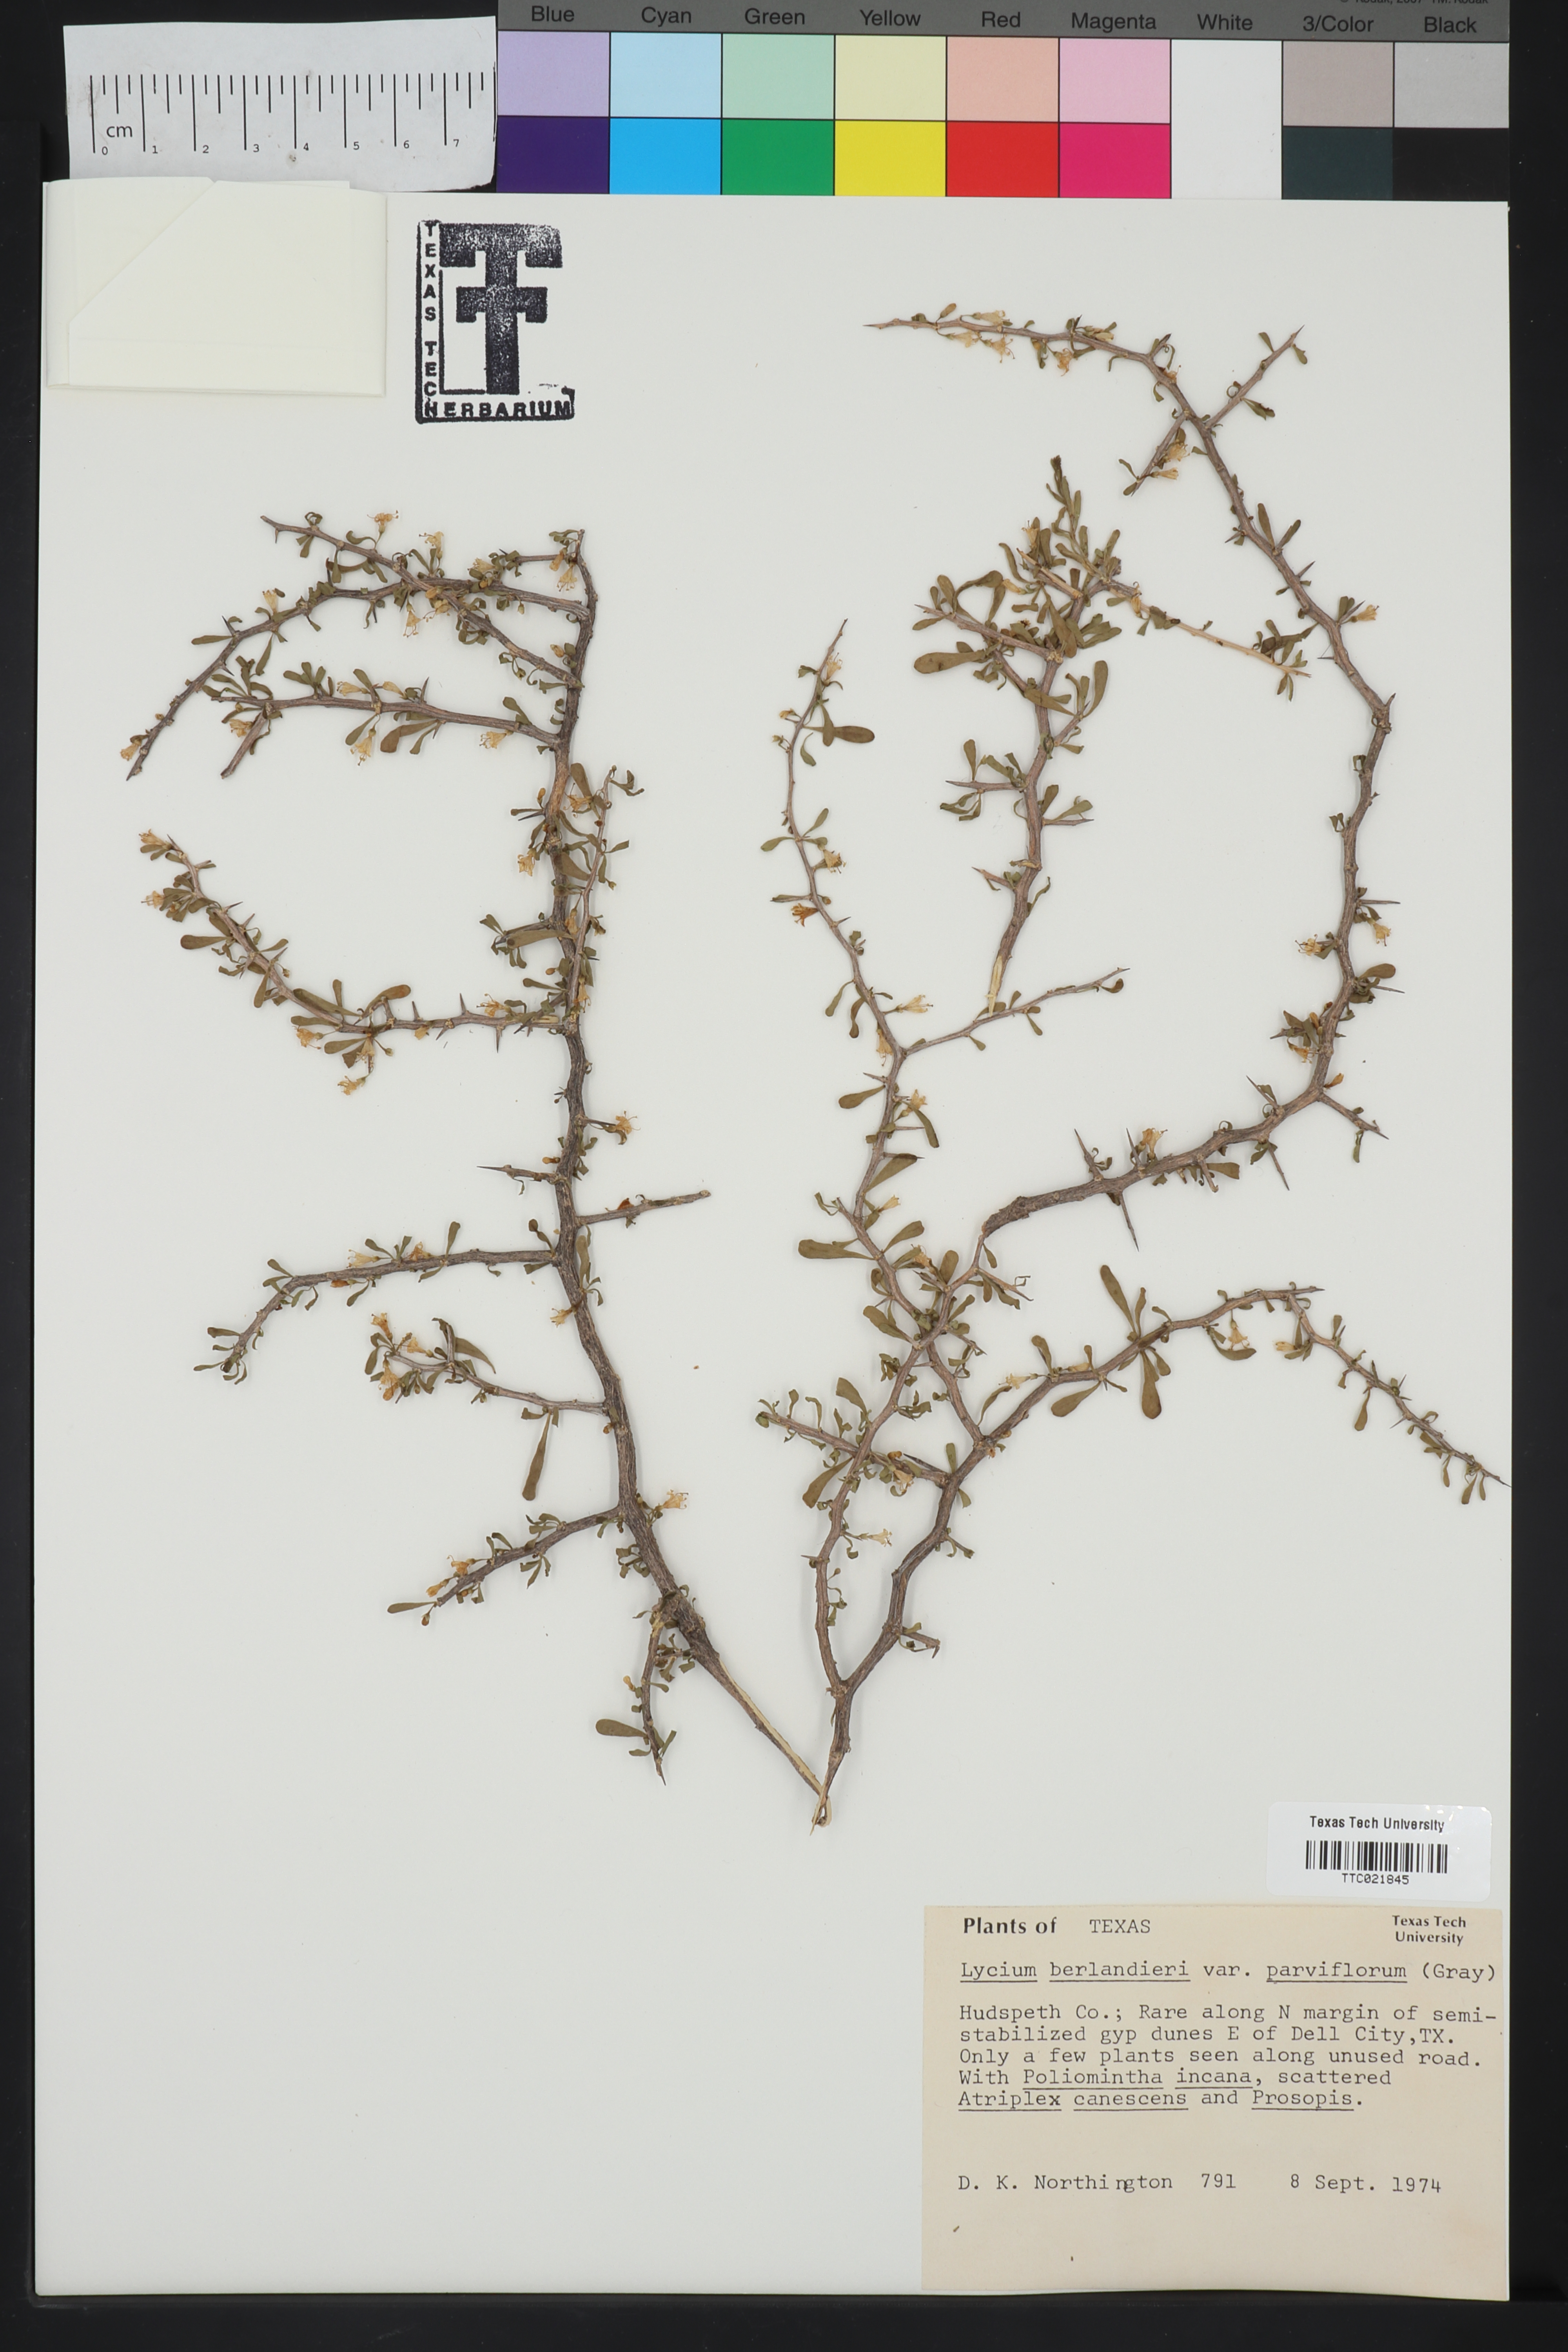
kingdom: Plantae
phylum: Tracheophyta
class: Magnoliopsida
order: Solanales
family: Solanaceae
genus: Lycium
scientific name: Lycium berlandieri
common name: Berlandier wolfberry
